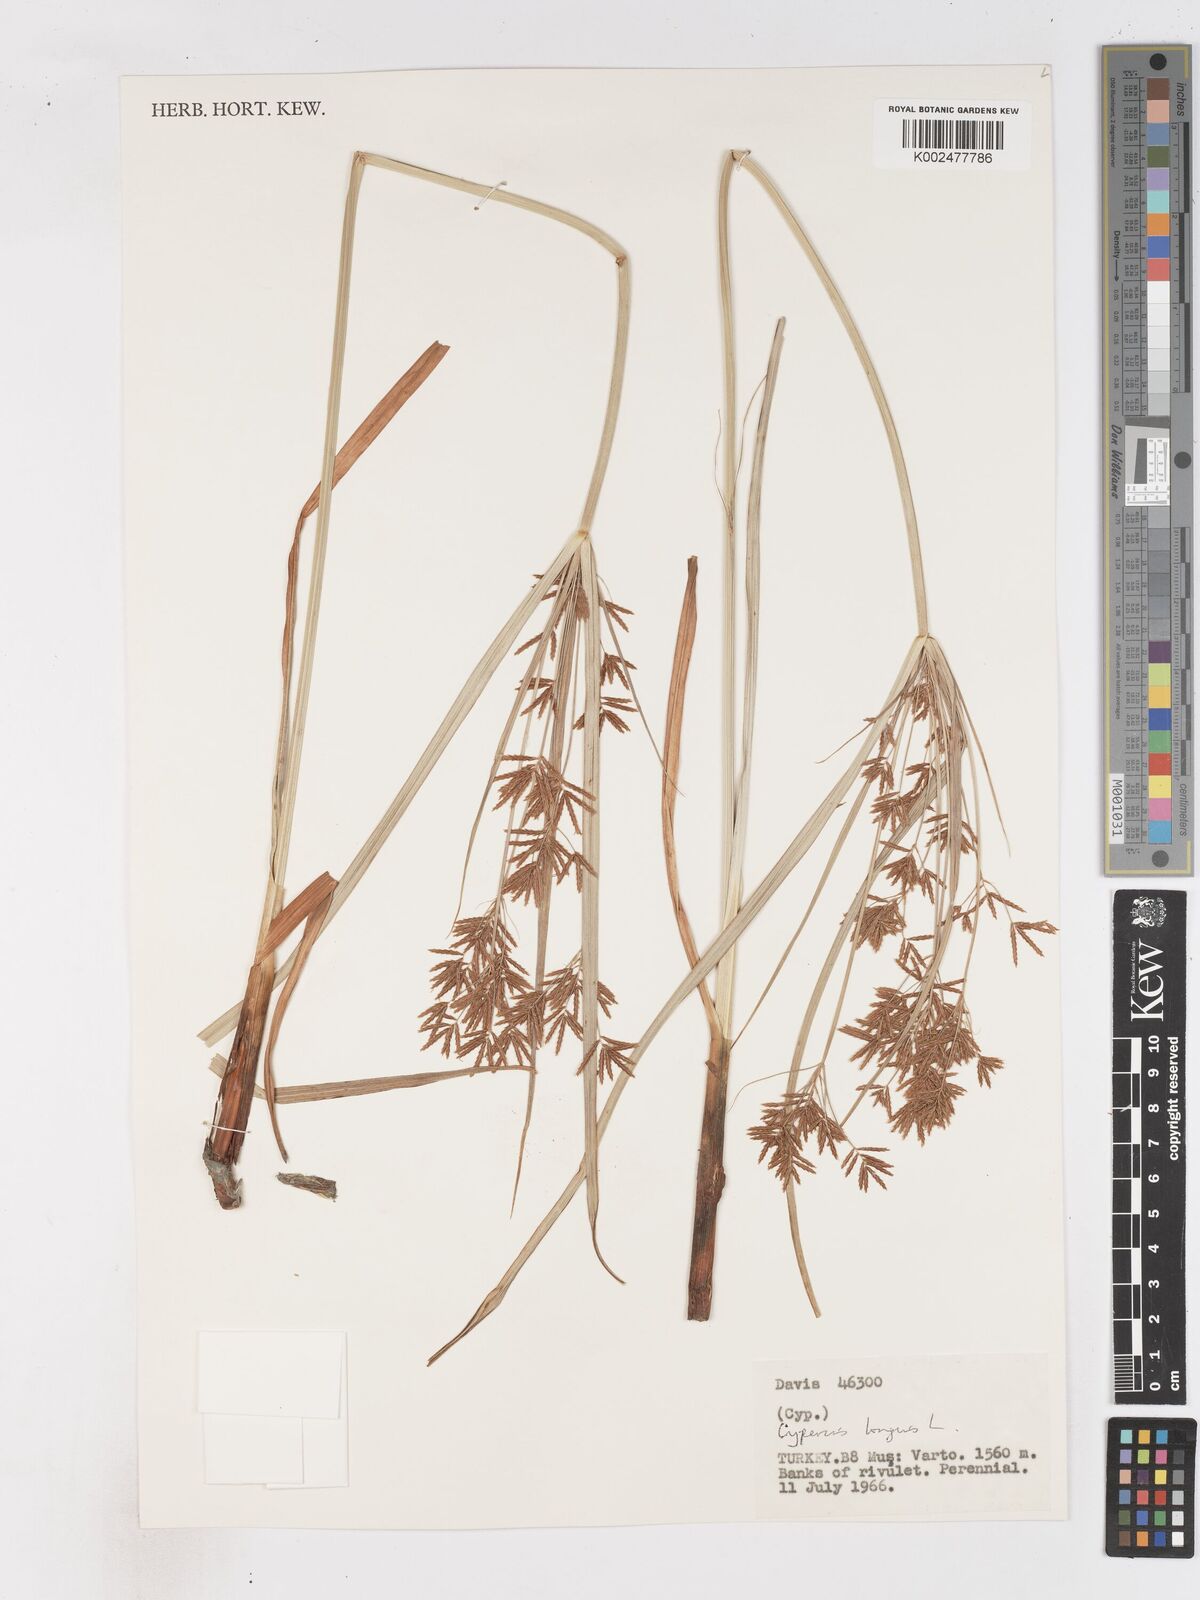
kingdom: Plantae
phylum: Tracheophyta
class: Liliopsida
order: Poales
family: Cyperaceae
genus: Cyperus
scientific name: Cyperus longus
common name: Galingale
